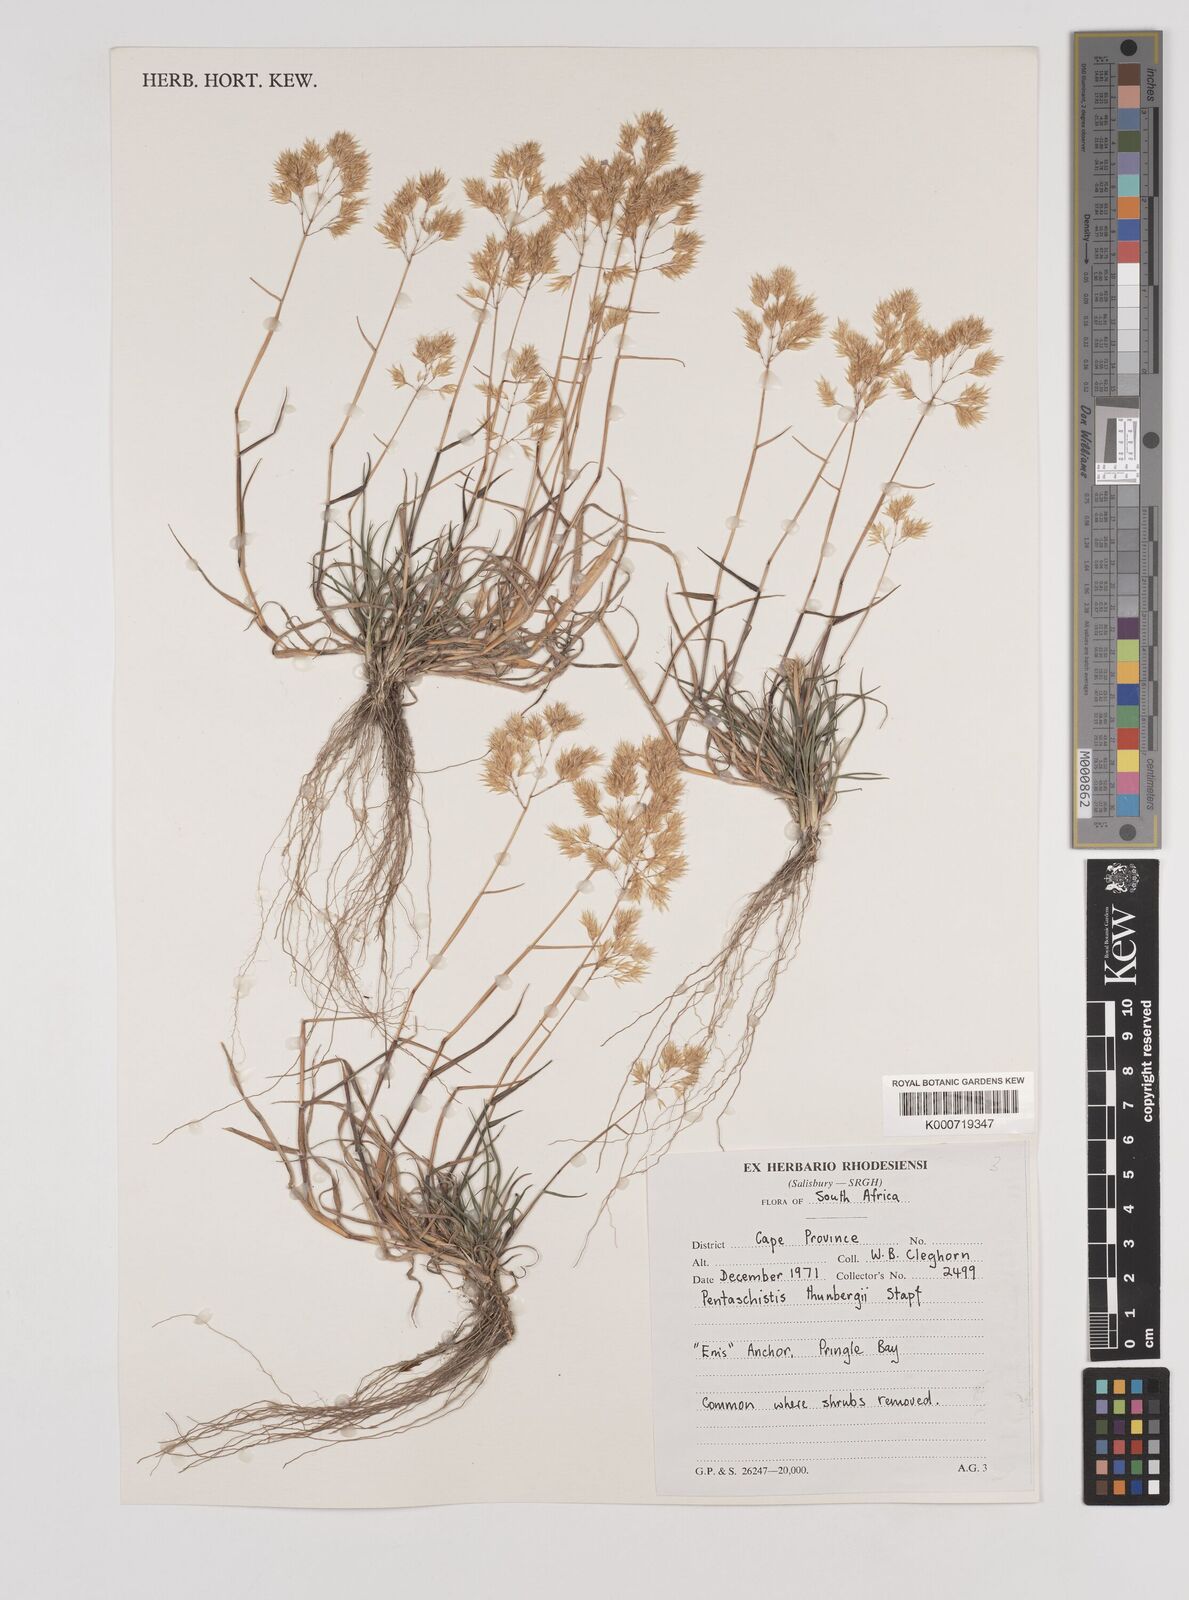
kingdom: Plantae
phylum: Tracheophyta
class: Liliopsida
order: Poales
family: Poaceae
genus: Pentameris
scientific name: Pentameris triseta
